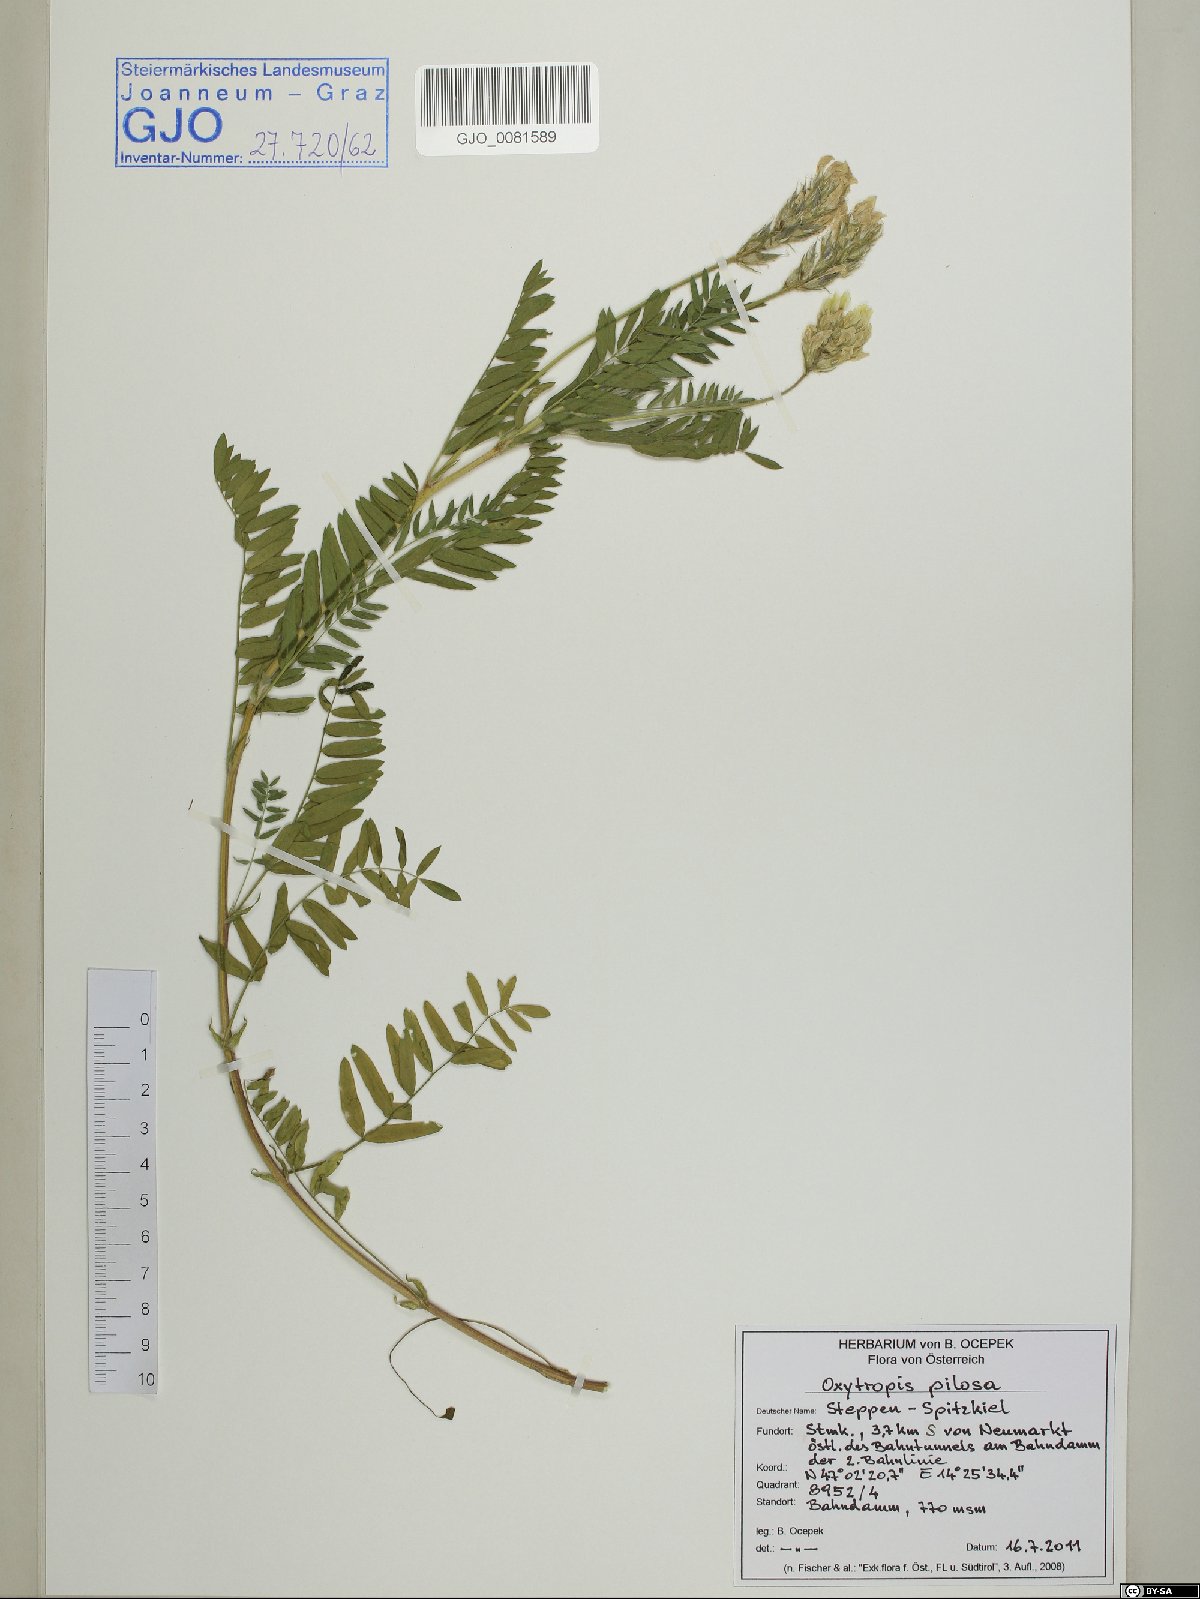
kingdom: Plantae
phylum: Tracheophyta
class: Magnoliopsida
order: Fabales
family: Fabaceae
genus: Oxytropis
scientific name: Oxytropis pilosa
